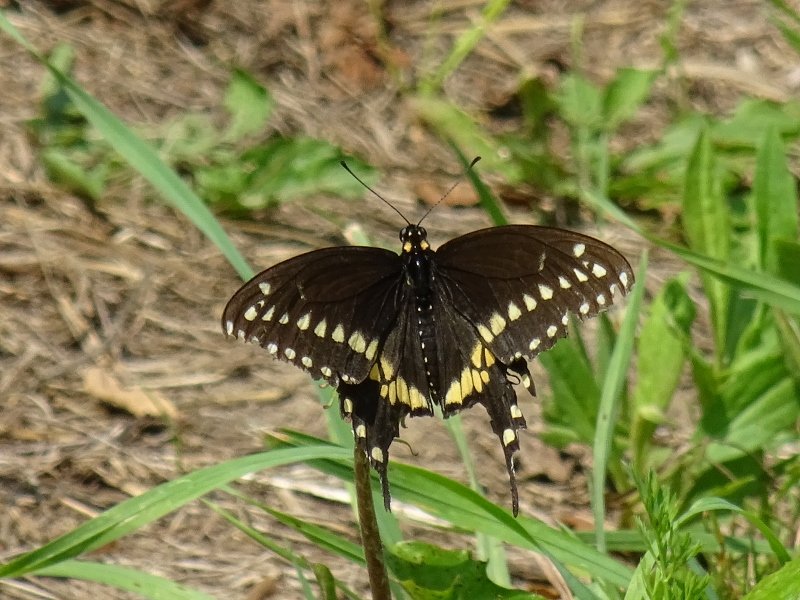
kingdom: Animalia
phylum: Arthropoda
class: Insecta
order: Lepidoptera
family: Papilionidae
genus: Papilio
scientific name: Papilio polyxenes
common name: Black Swallowtail
